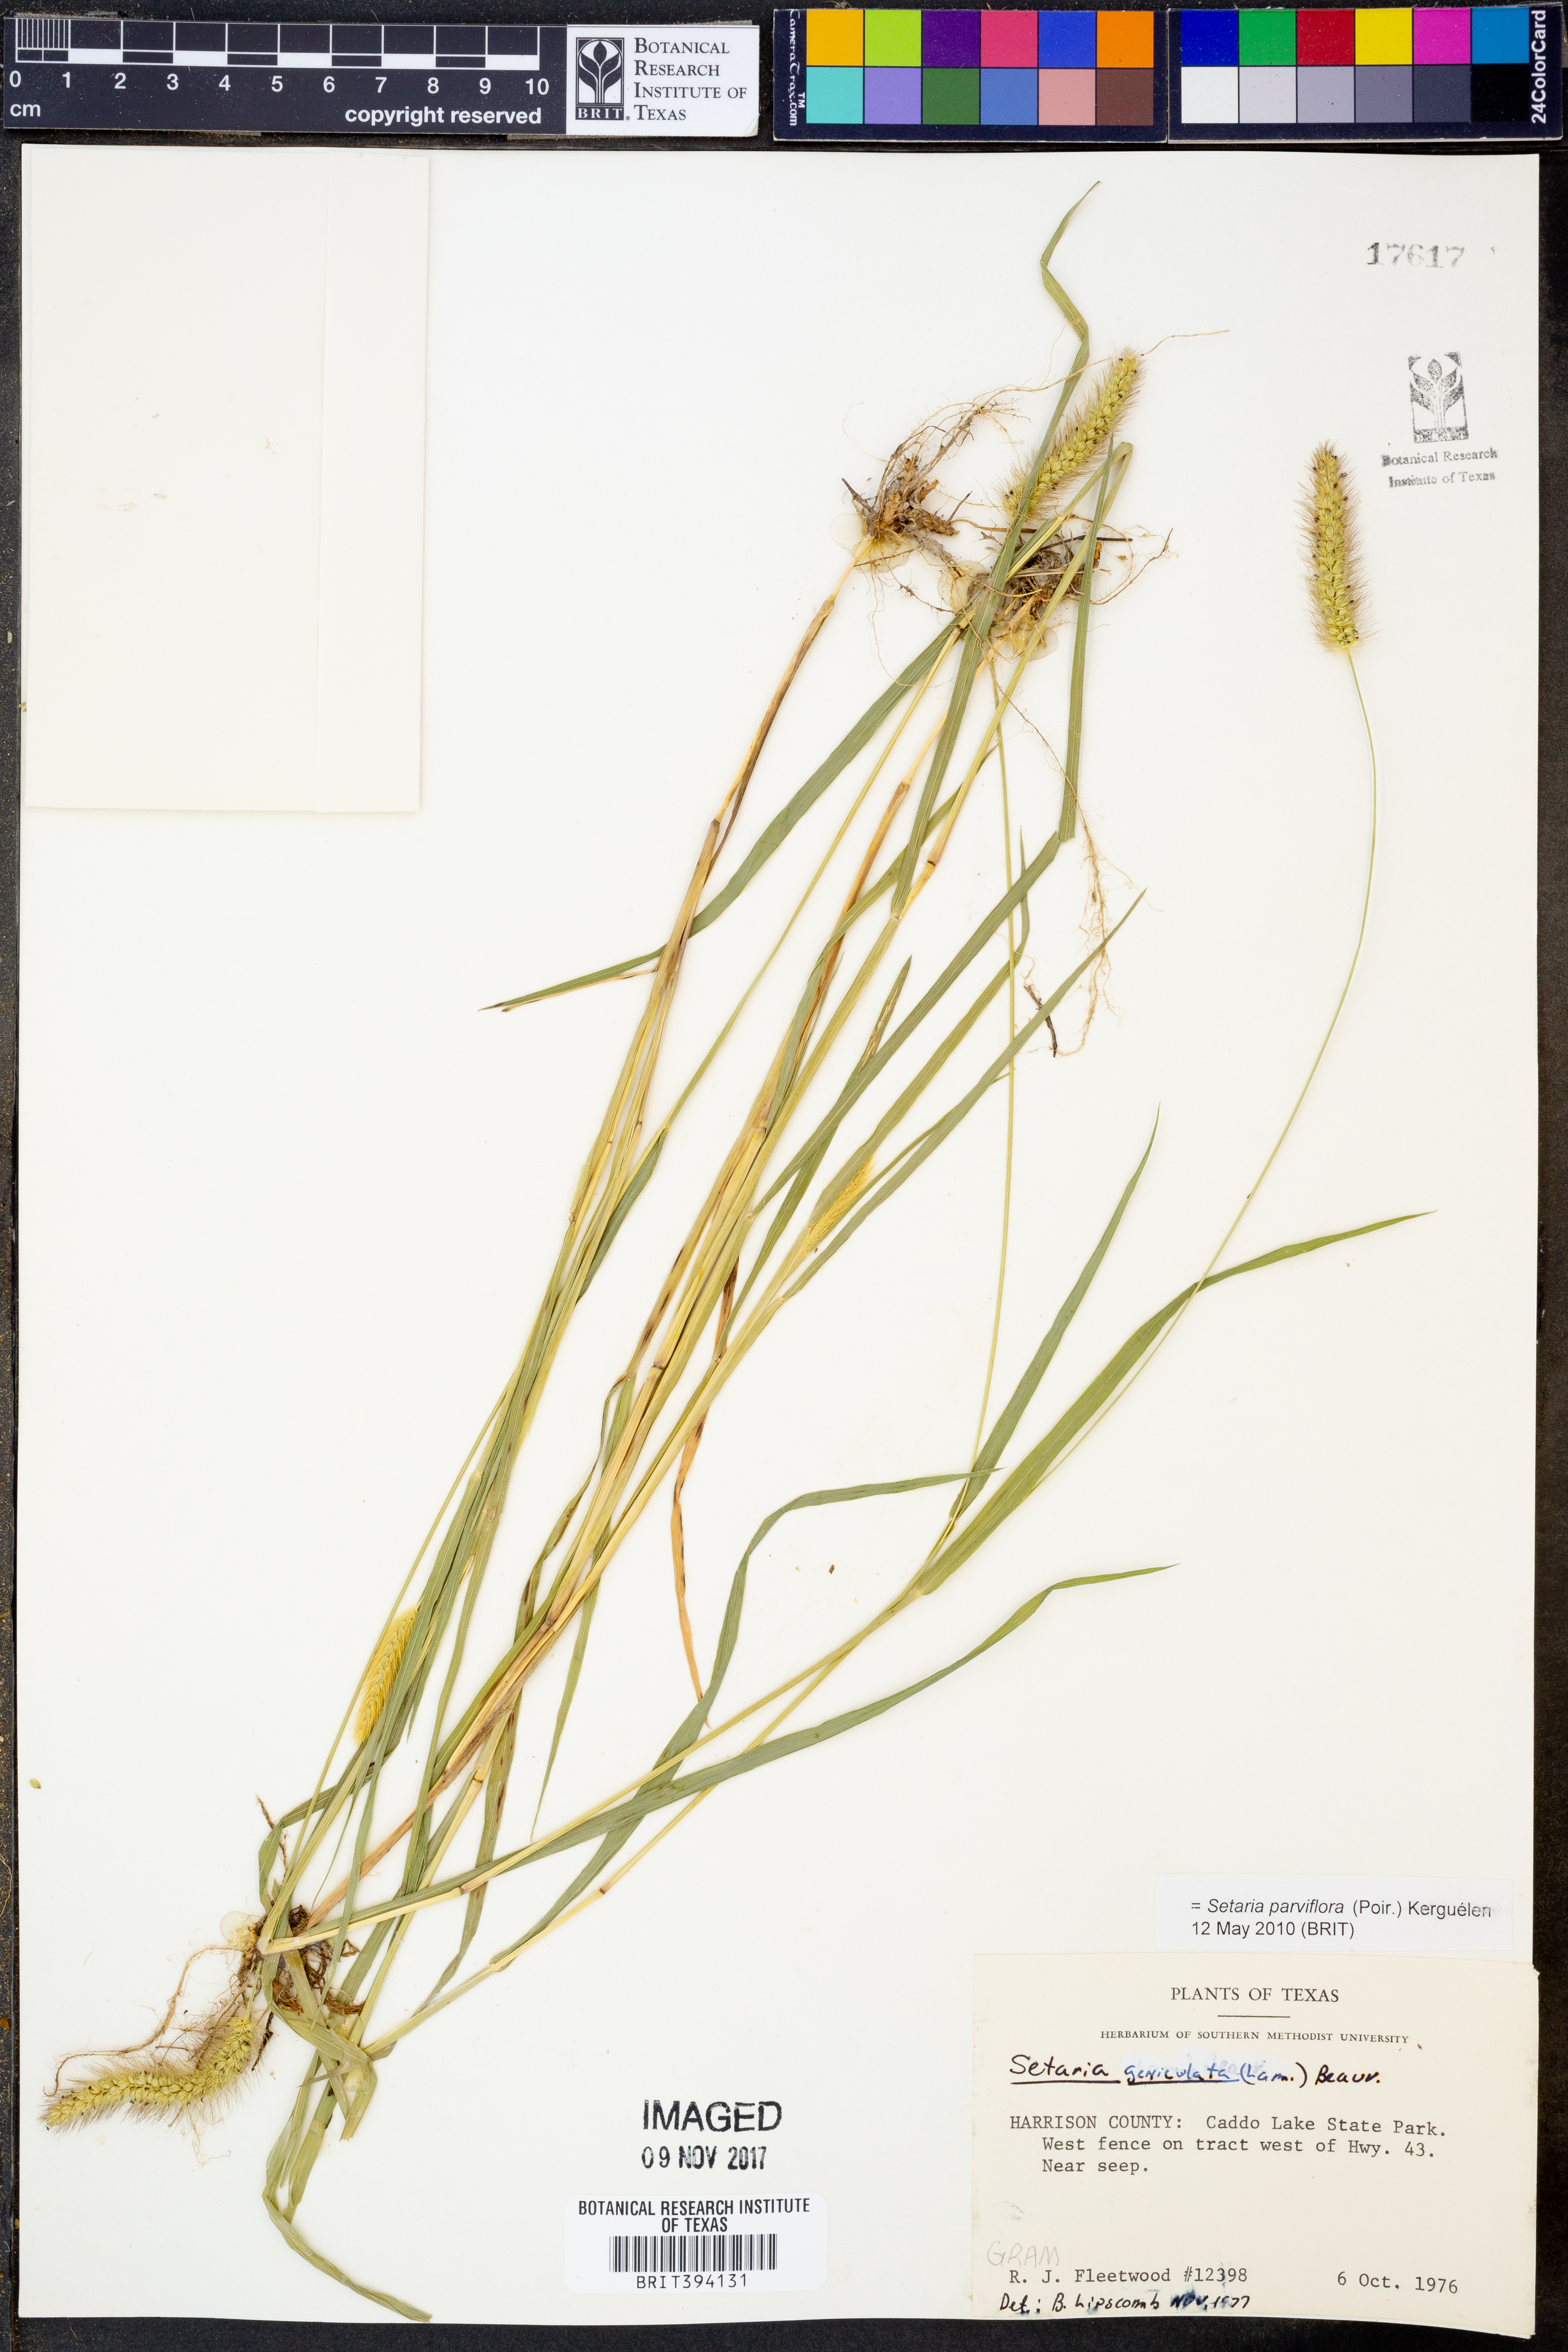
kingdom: Plantae
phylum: Tracheophyta
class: Liliopsida
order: Poales
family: Poaceae
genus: Setaria
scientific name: Setaria parviflora
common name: Knotroot bristle-grass
